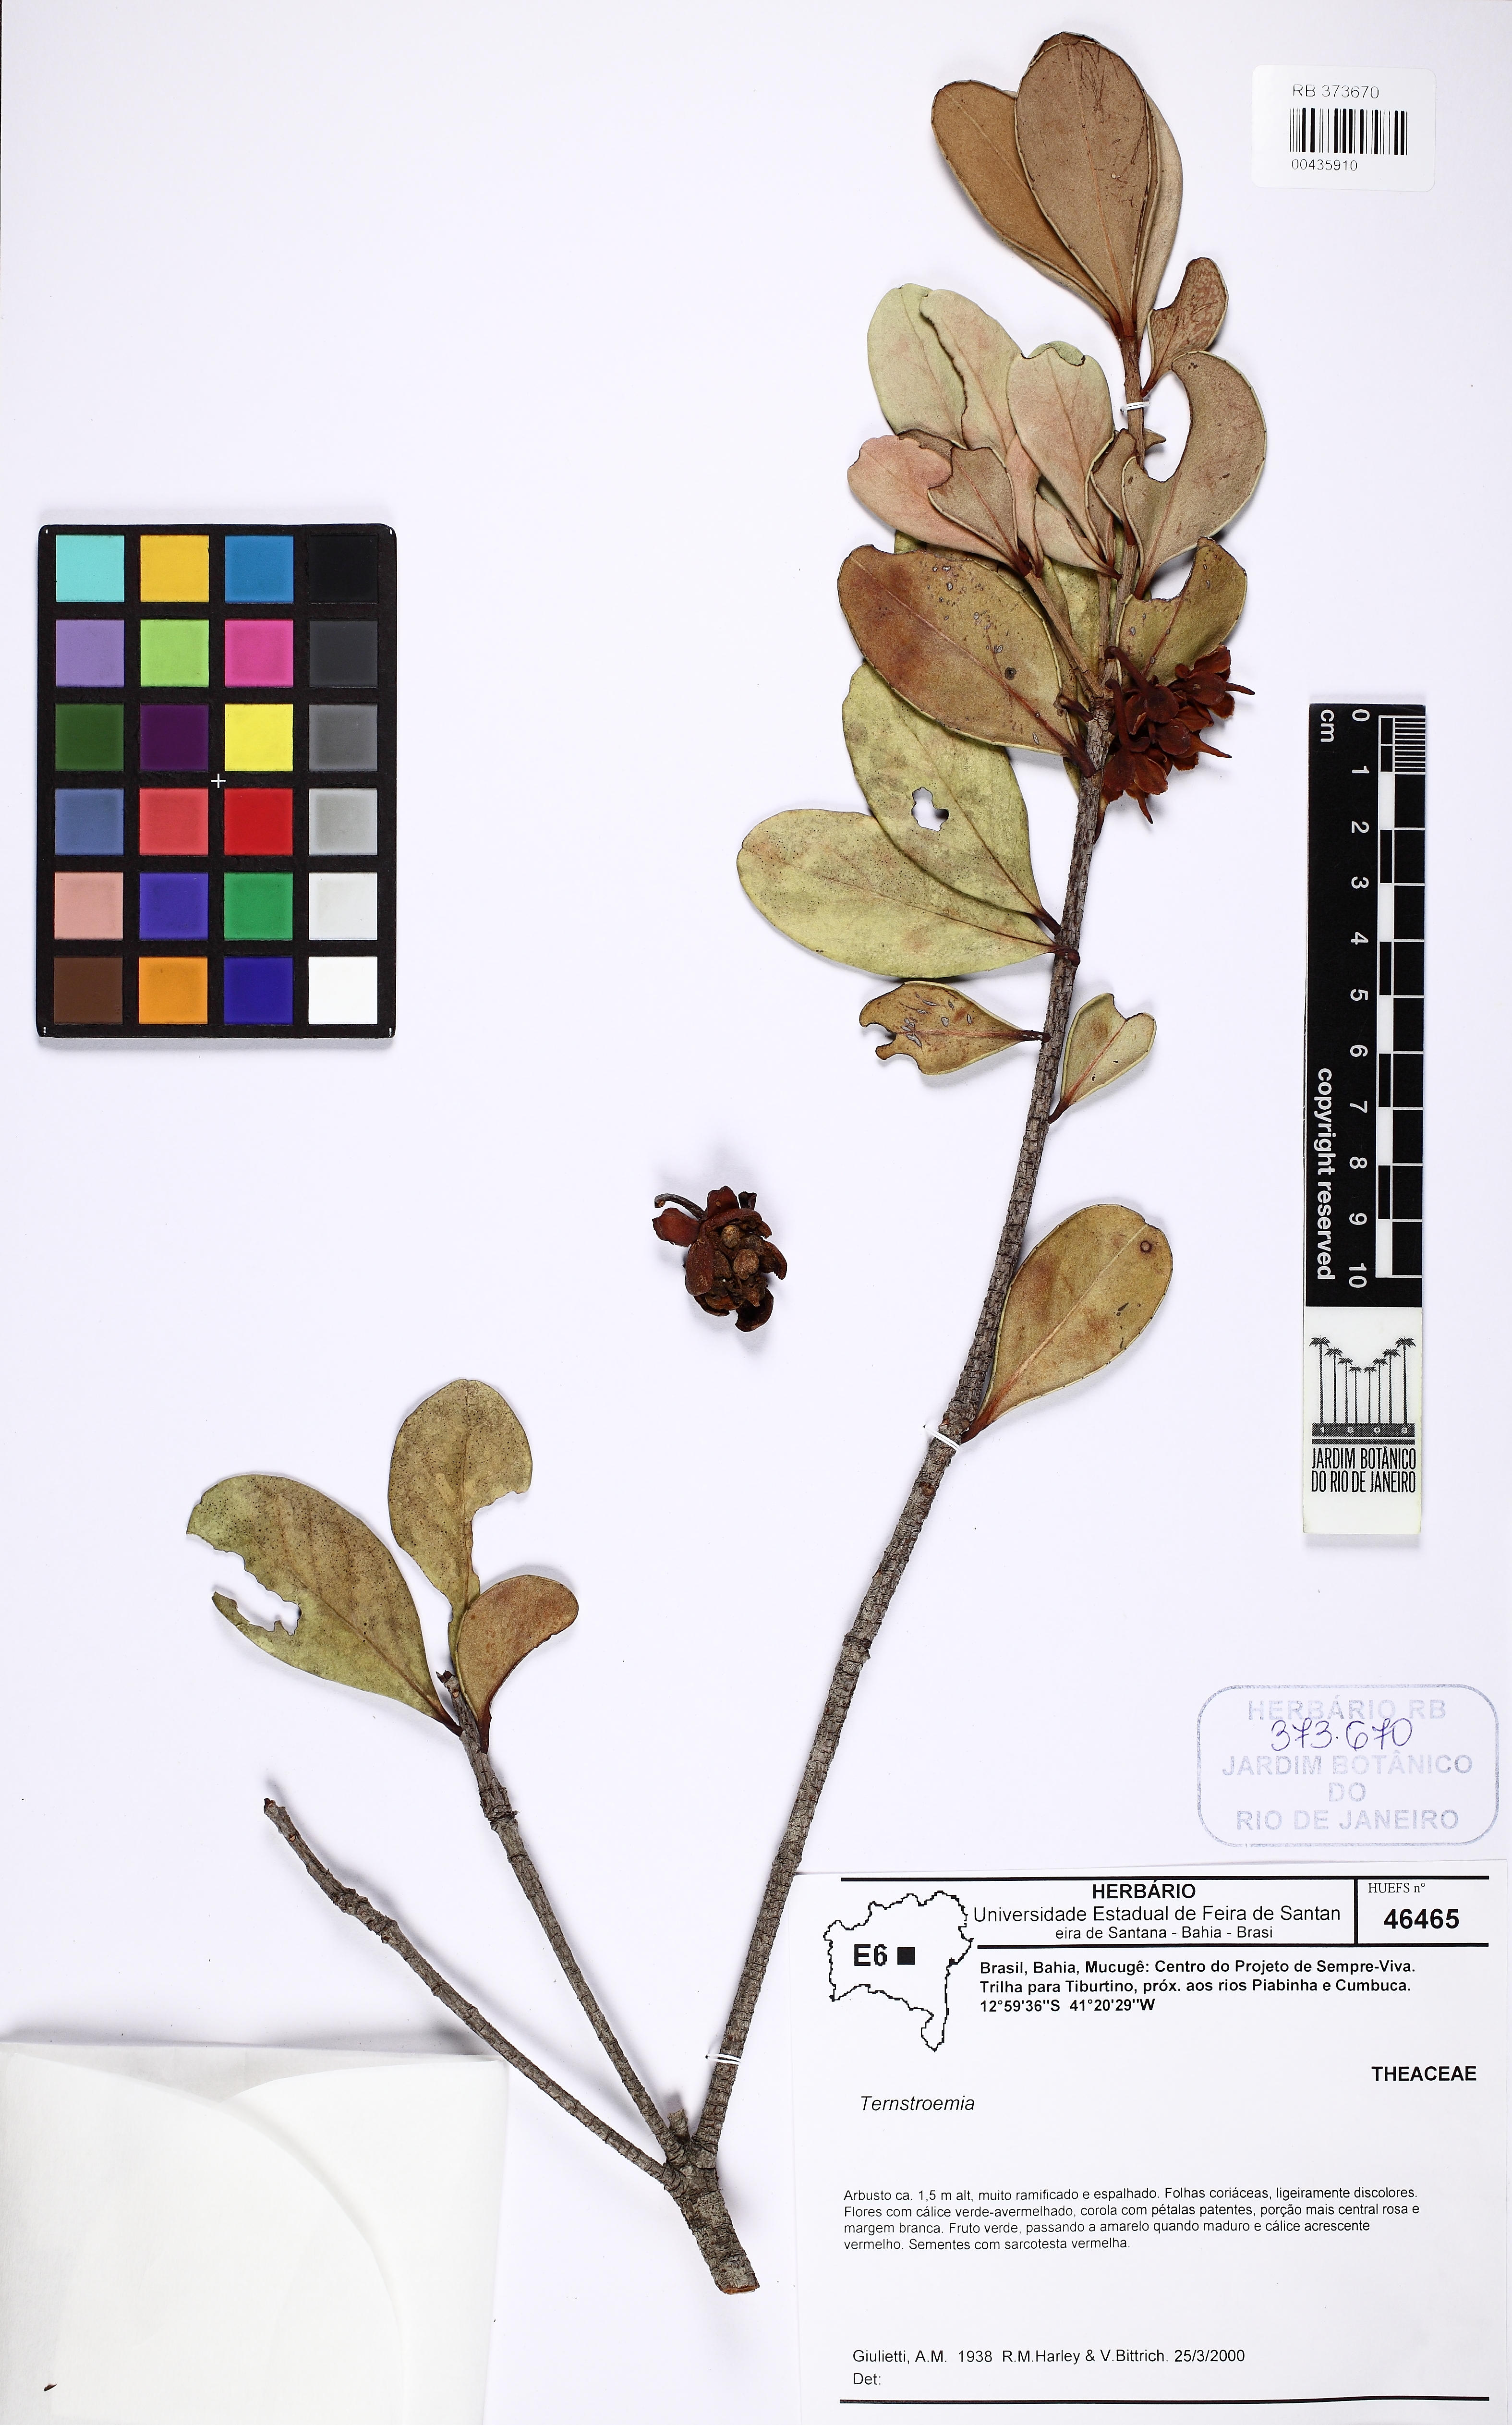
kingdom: Plantae
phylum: Tracheophyta
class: Magnoliopsida
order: Ericales
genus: Ternstroemia
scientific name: Ternstroemia
